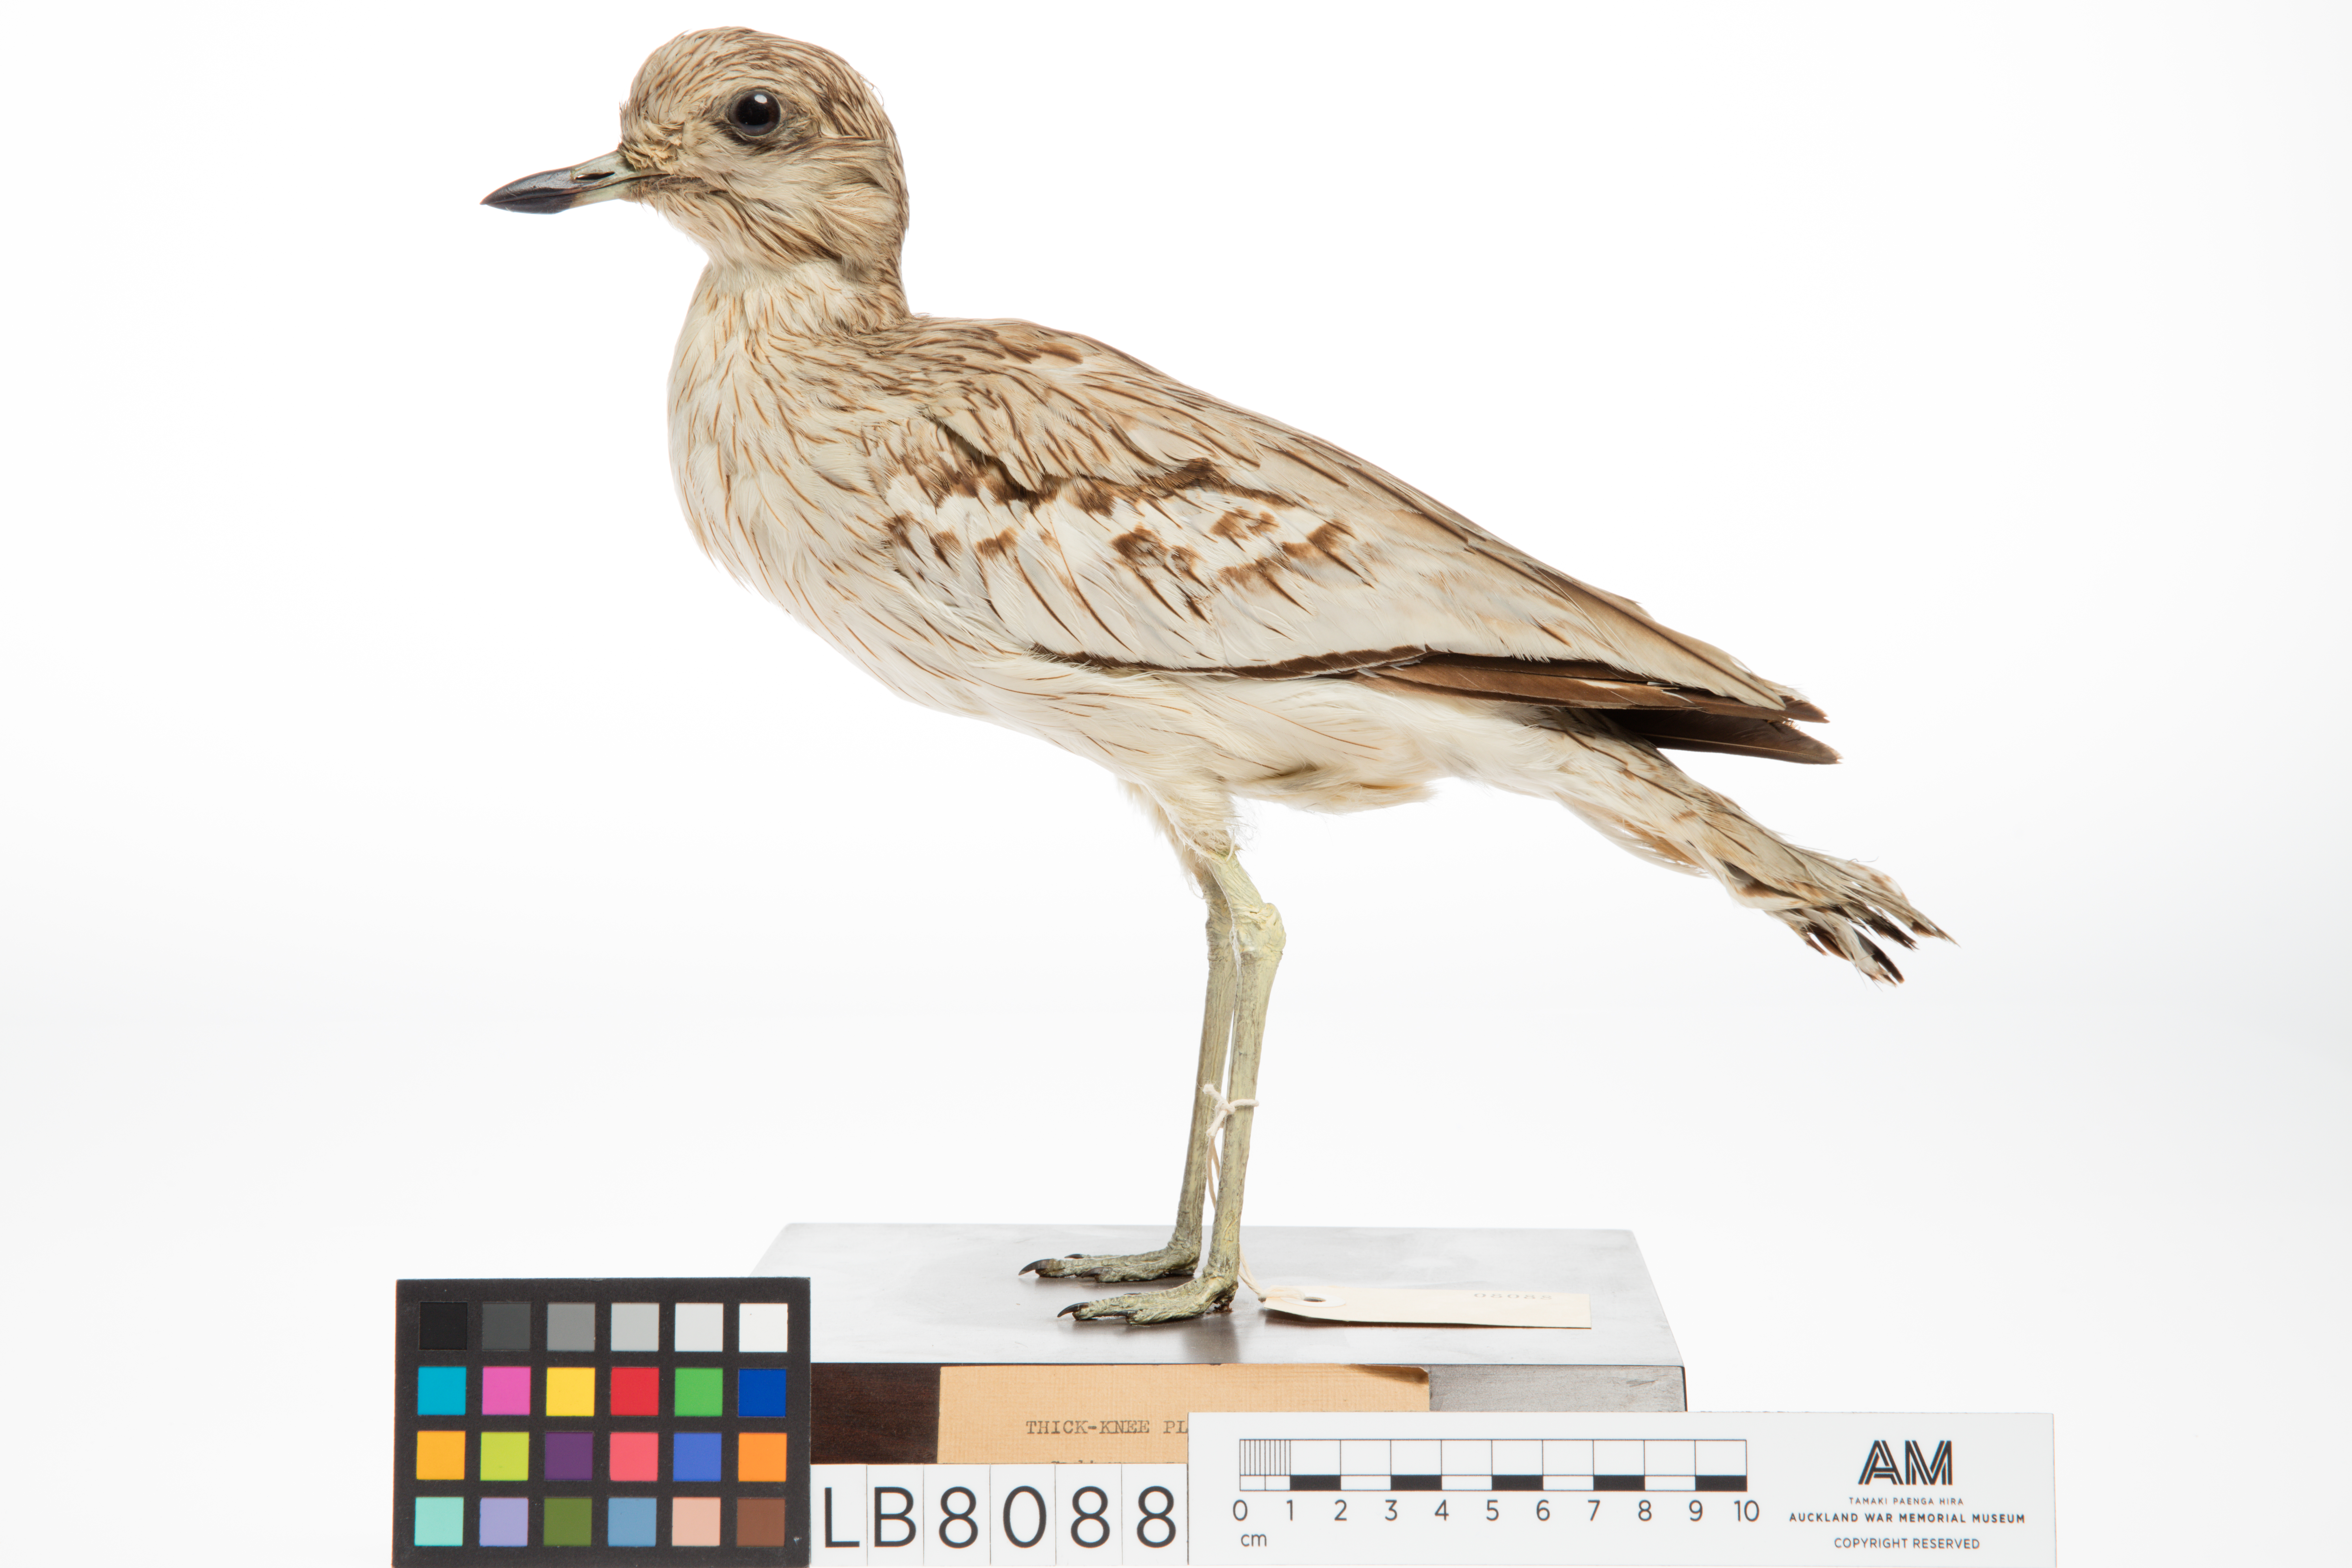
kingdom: Animalia
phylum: Chordata
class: Aves
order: Charadriiformes
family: Burhinidae
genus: Burhinus
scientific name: Burhinus oedicnemus
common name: Eurasian stone-curlew
